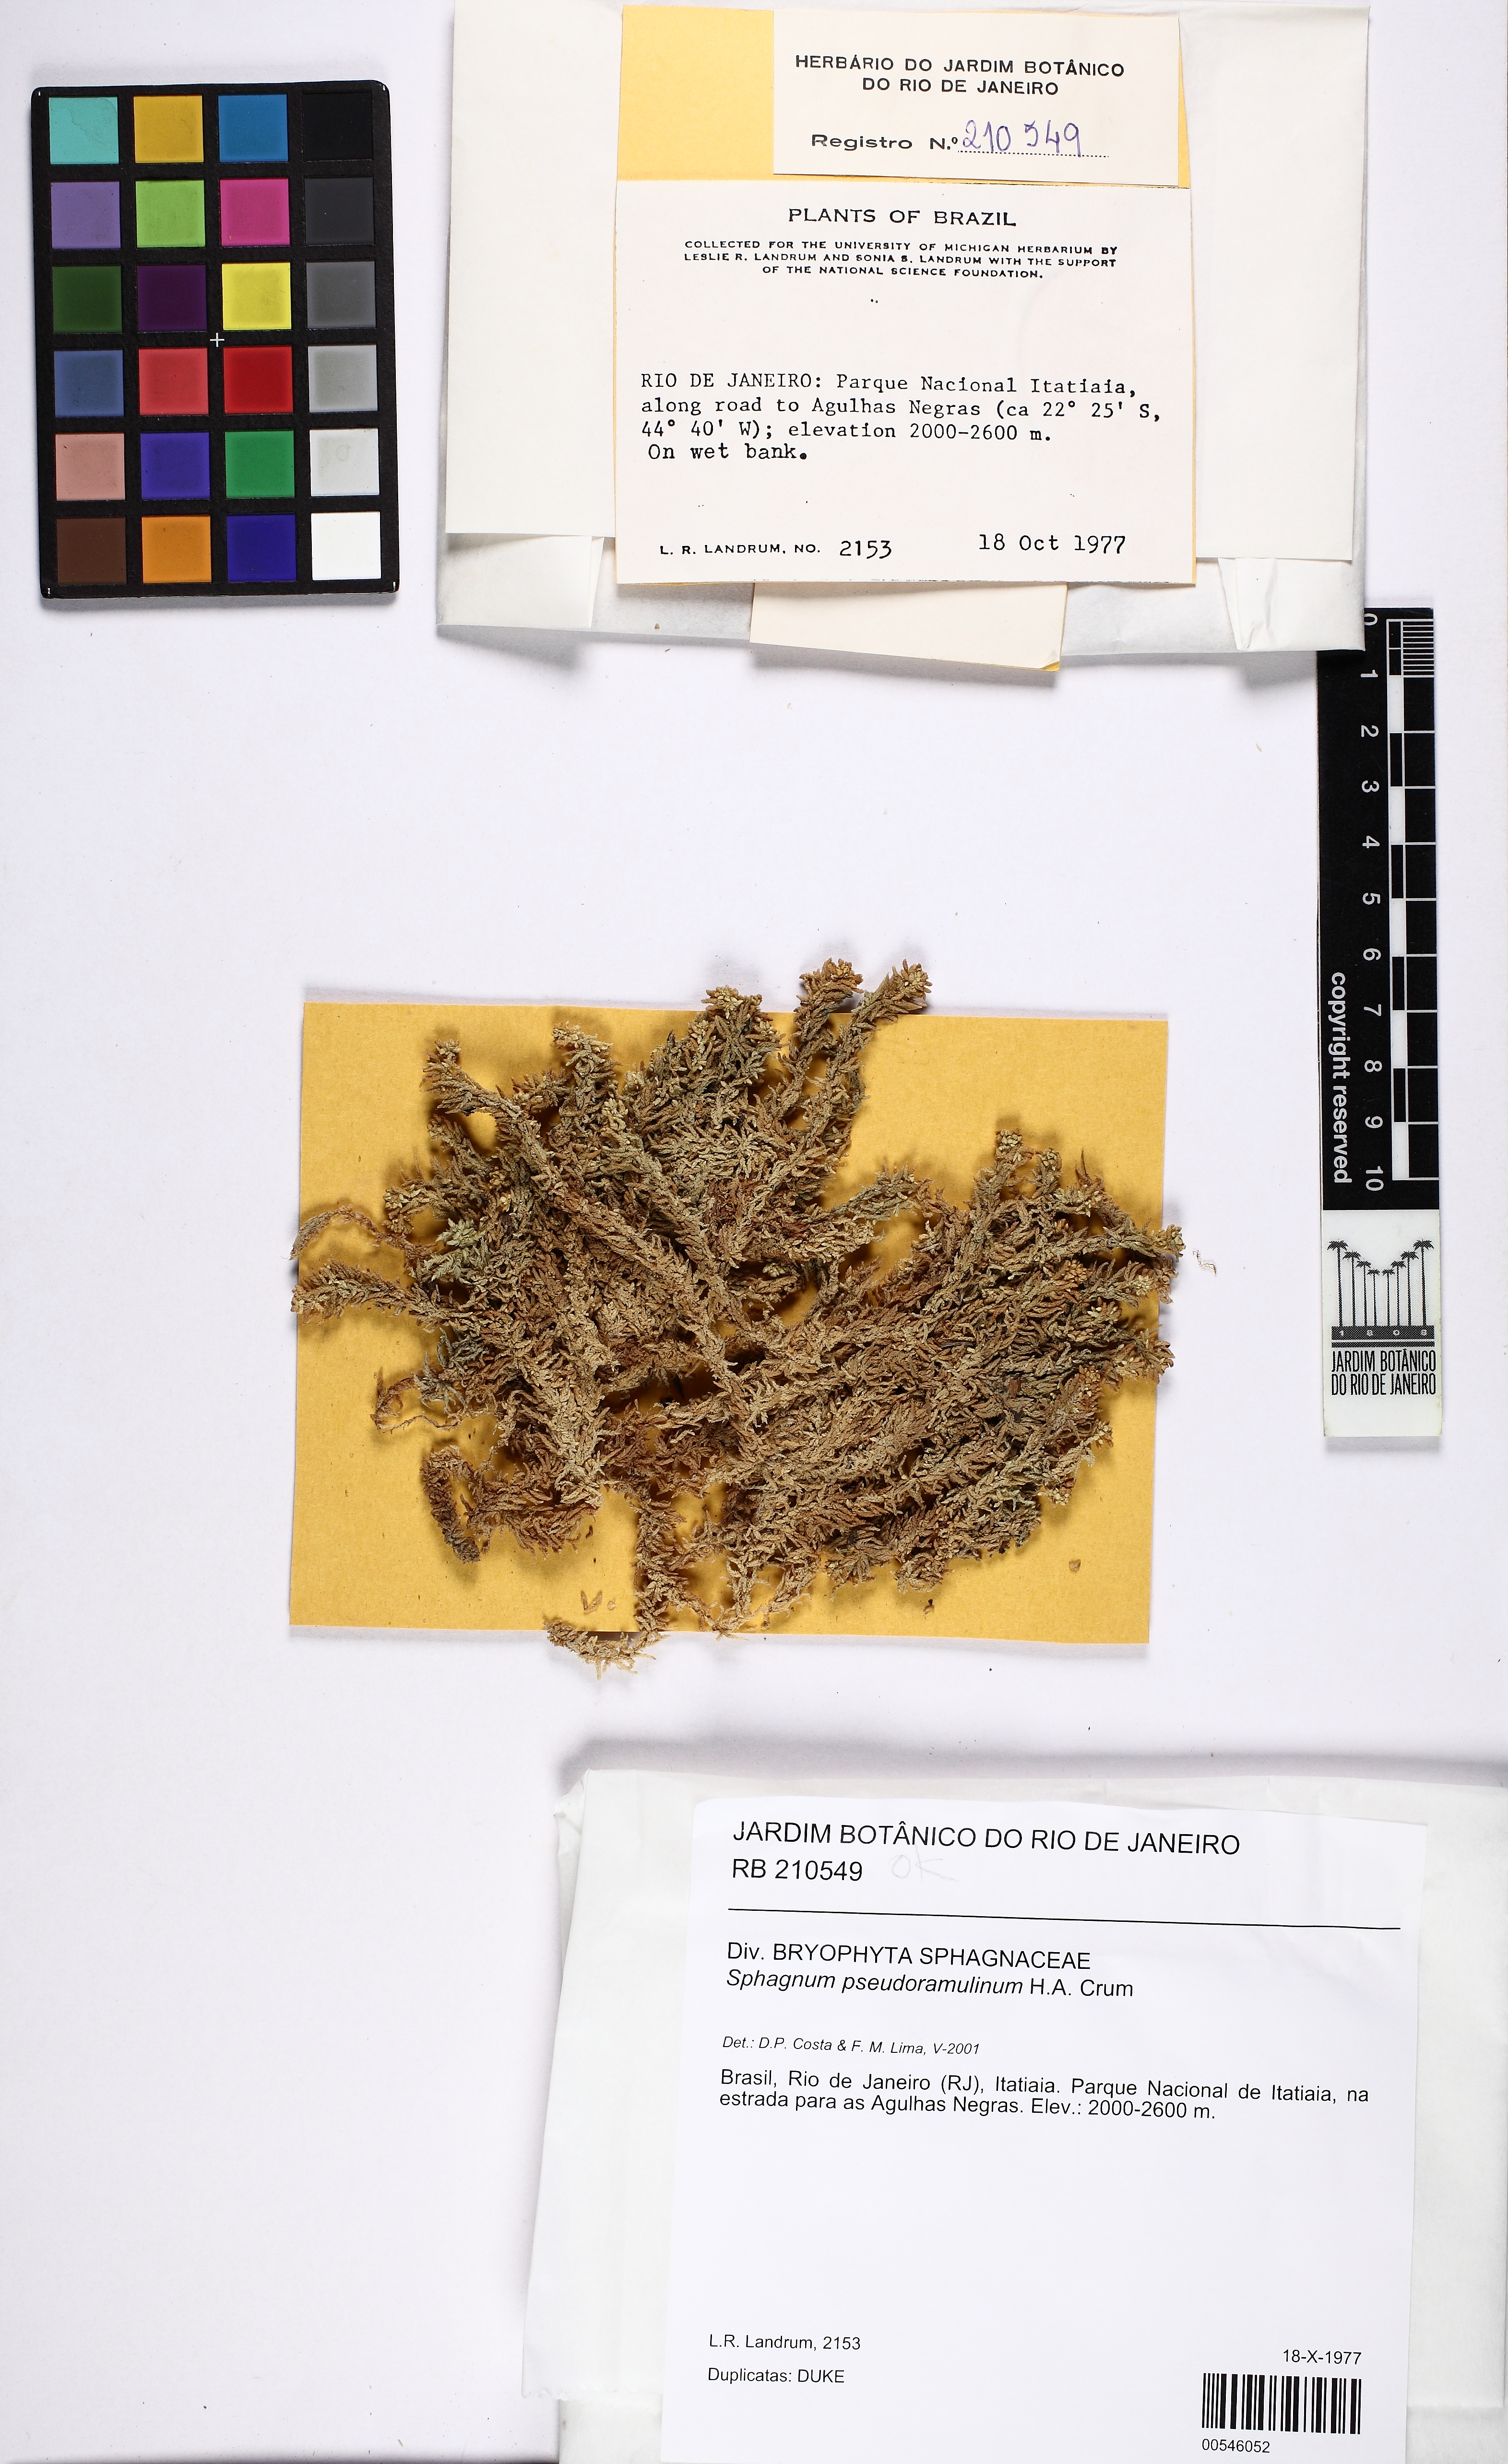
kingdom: Plantae
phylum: Bryophyta
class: Sphagnopsida
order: Sphagnales
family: Sphagnaceae
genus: Sphagnum
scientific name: Sphagnum pseudoramulinum
